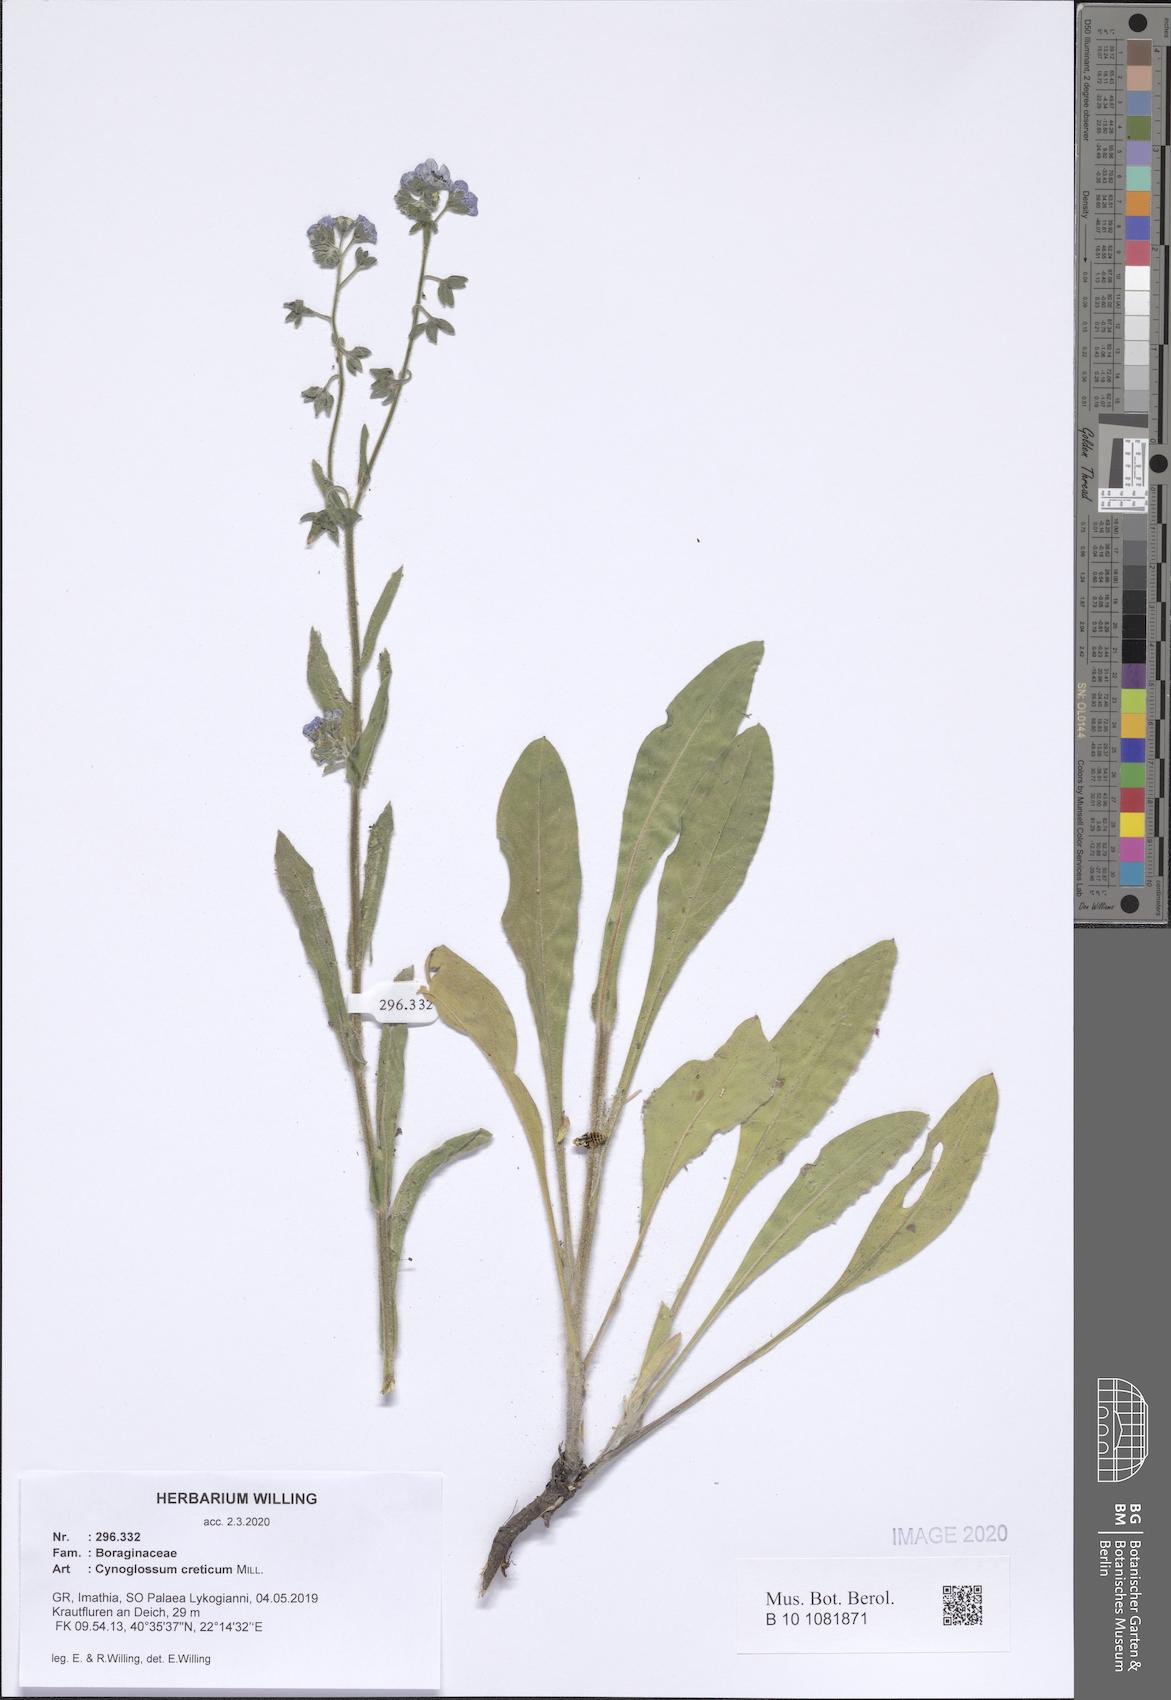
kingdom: Plantae
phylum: Tracheophyta
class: Magnoliopsida
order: Boraginales
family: Boraginaceae
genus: Cynoglossum
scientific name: Cynoglossum creticum
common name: Blue hound's tongue
